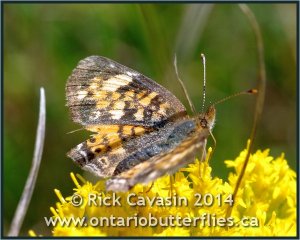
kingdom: Animalia
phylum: Arthropoda
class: Insecta
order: Lepidoptera
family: Nymphalidae
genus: Phyciodes
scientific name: Phyciodes
